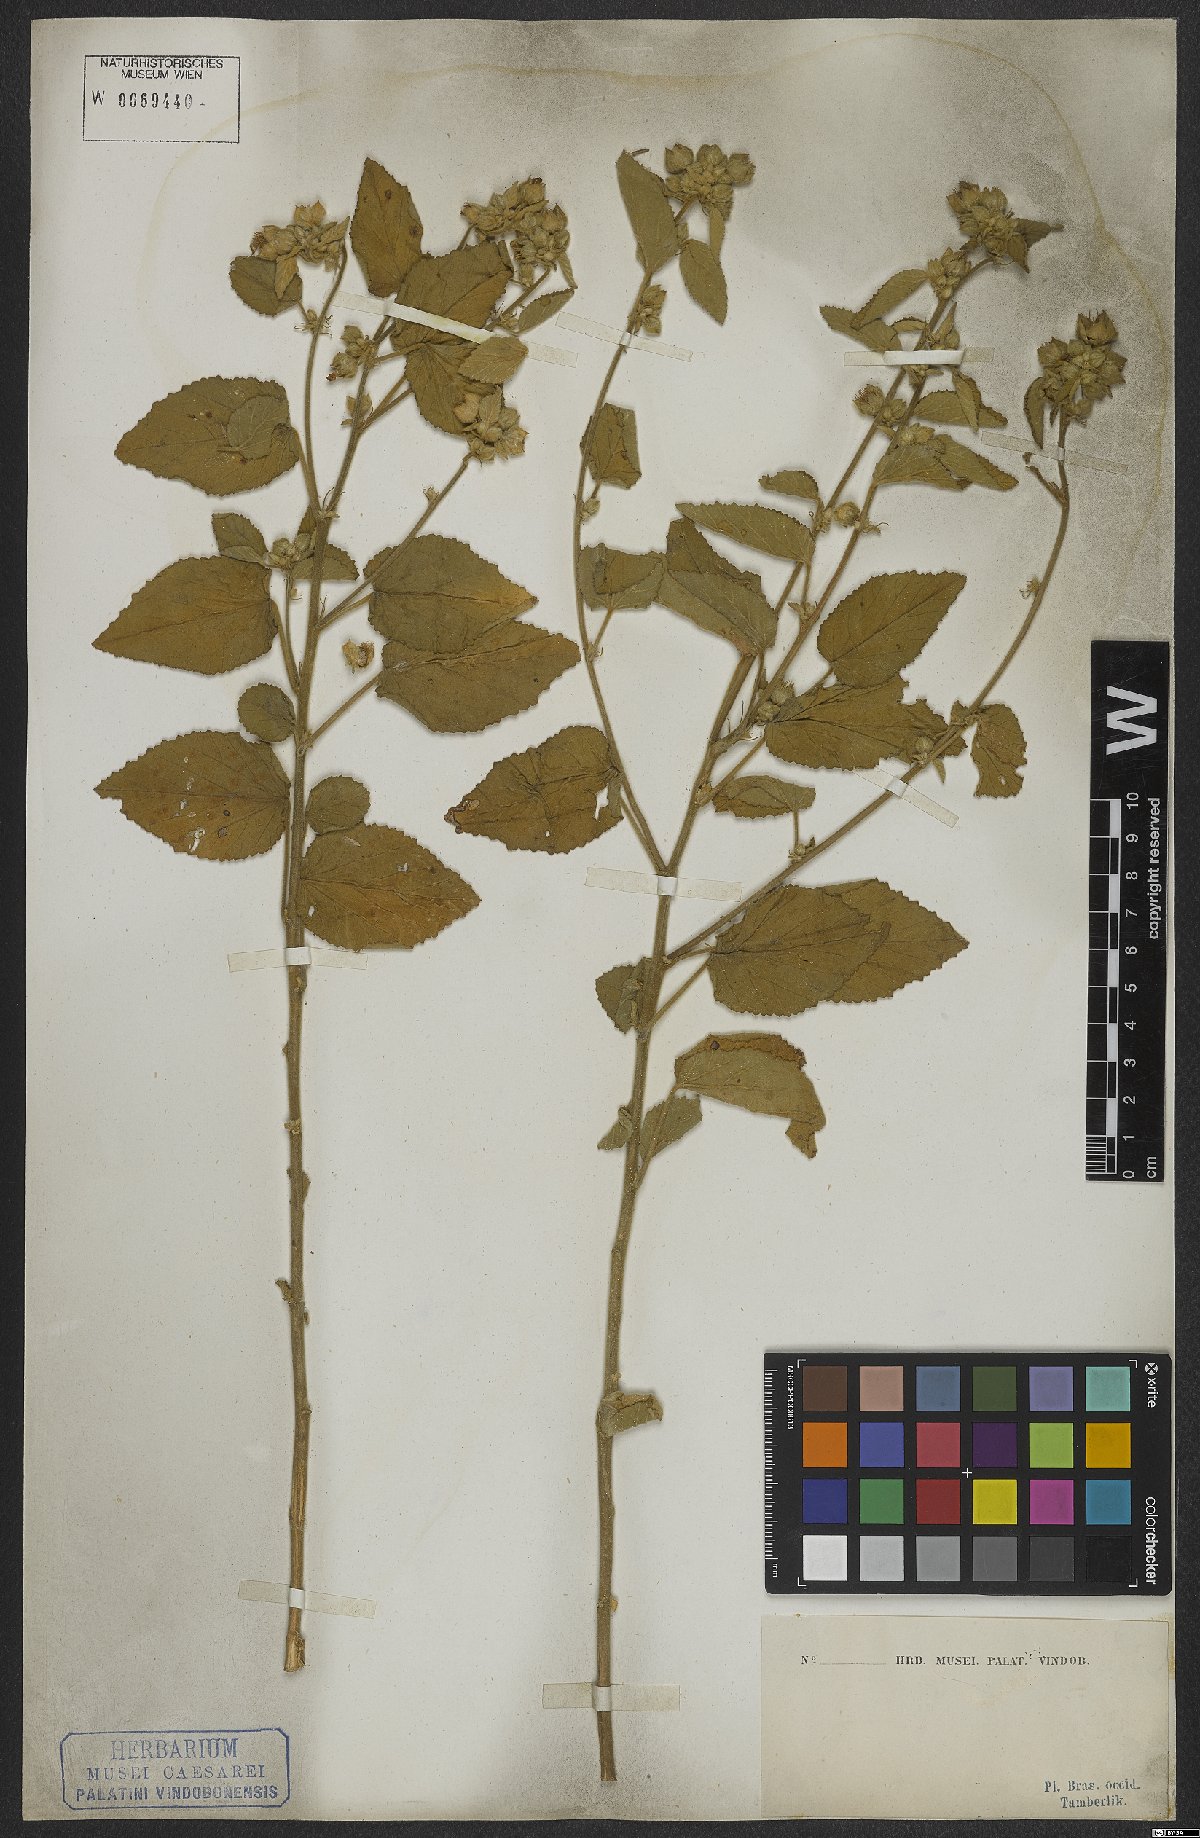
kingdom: Plantae
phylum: Tracheophyta
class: Magnoliopsida
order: Malvales
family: Malvaceae
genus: Sida
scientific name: Sida cordifolia
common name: Ilima
